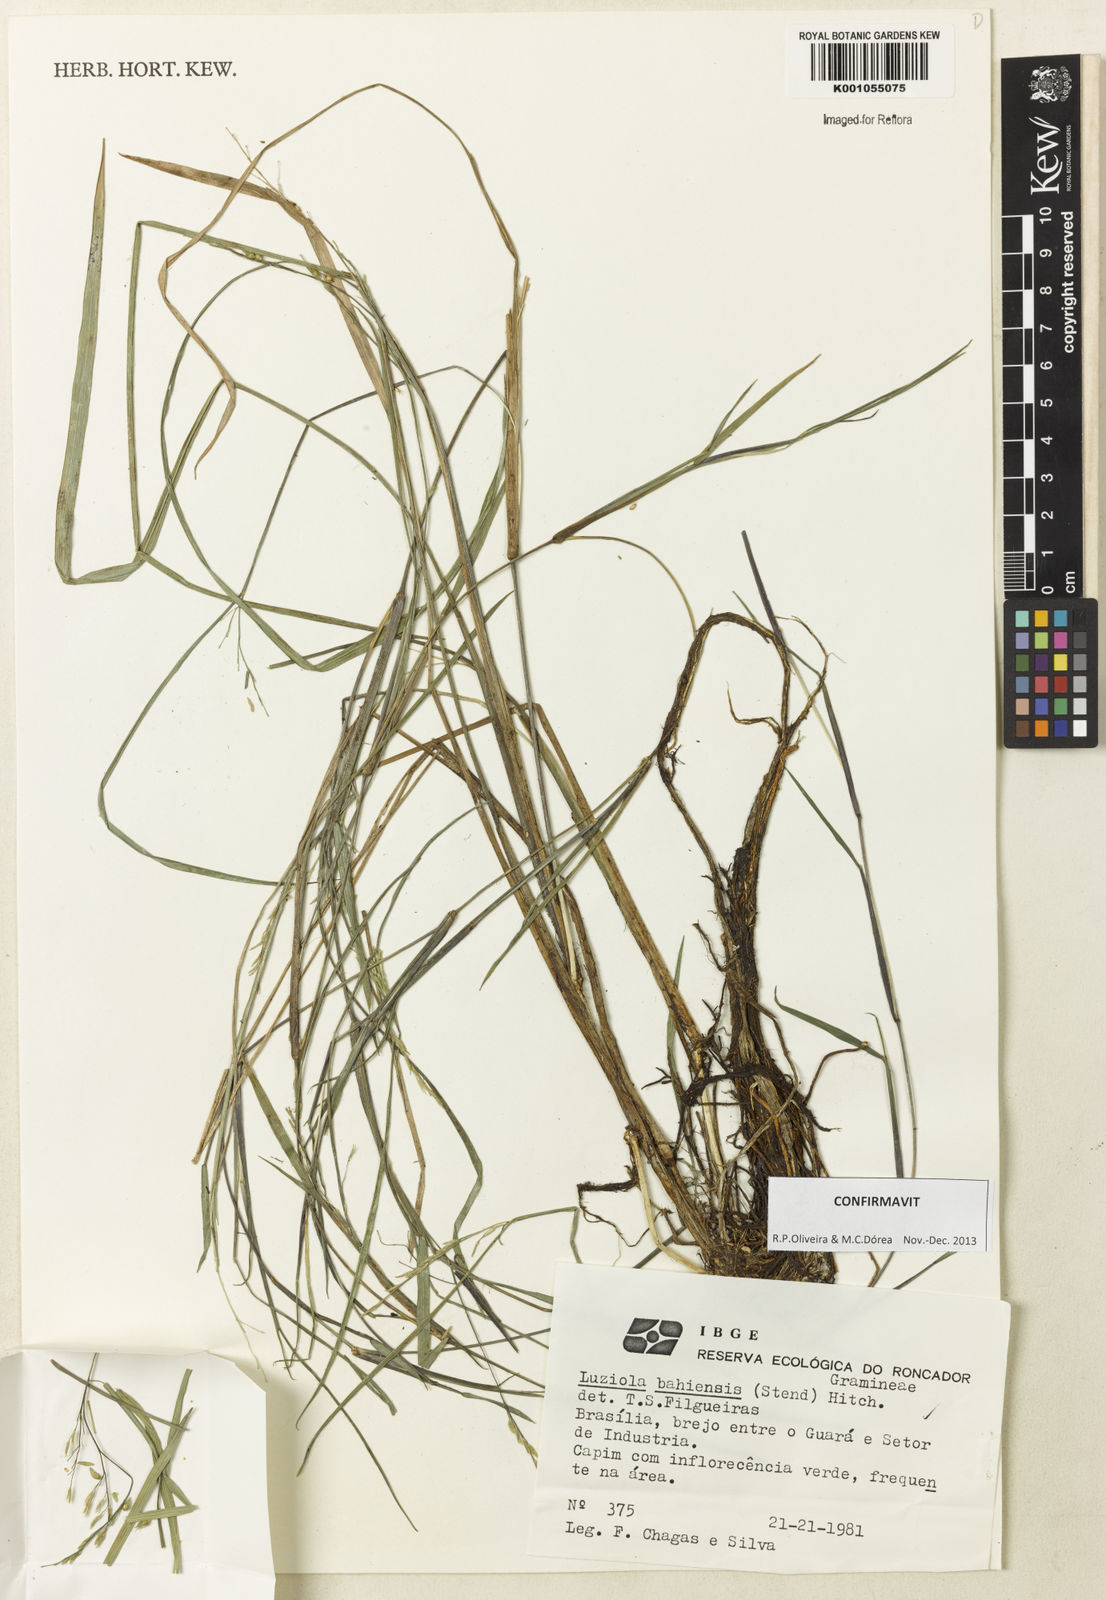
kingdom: Plantae
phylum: Tracheophyta
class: Liliopsida
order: Poales
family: Poaceae
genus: Luziola
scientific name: Luziola bahiensis
